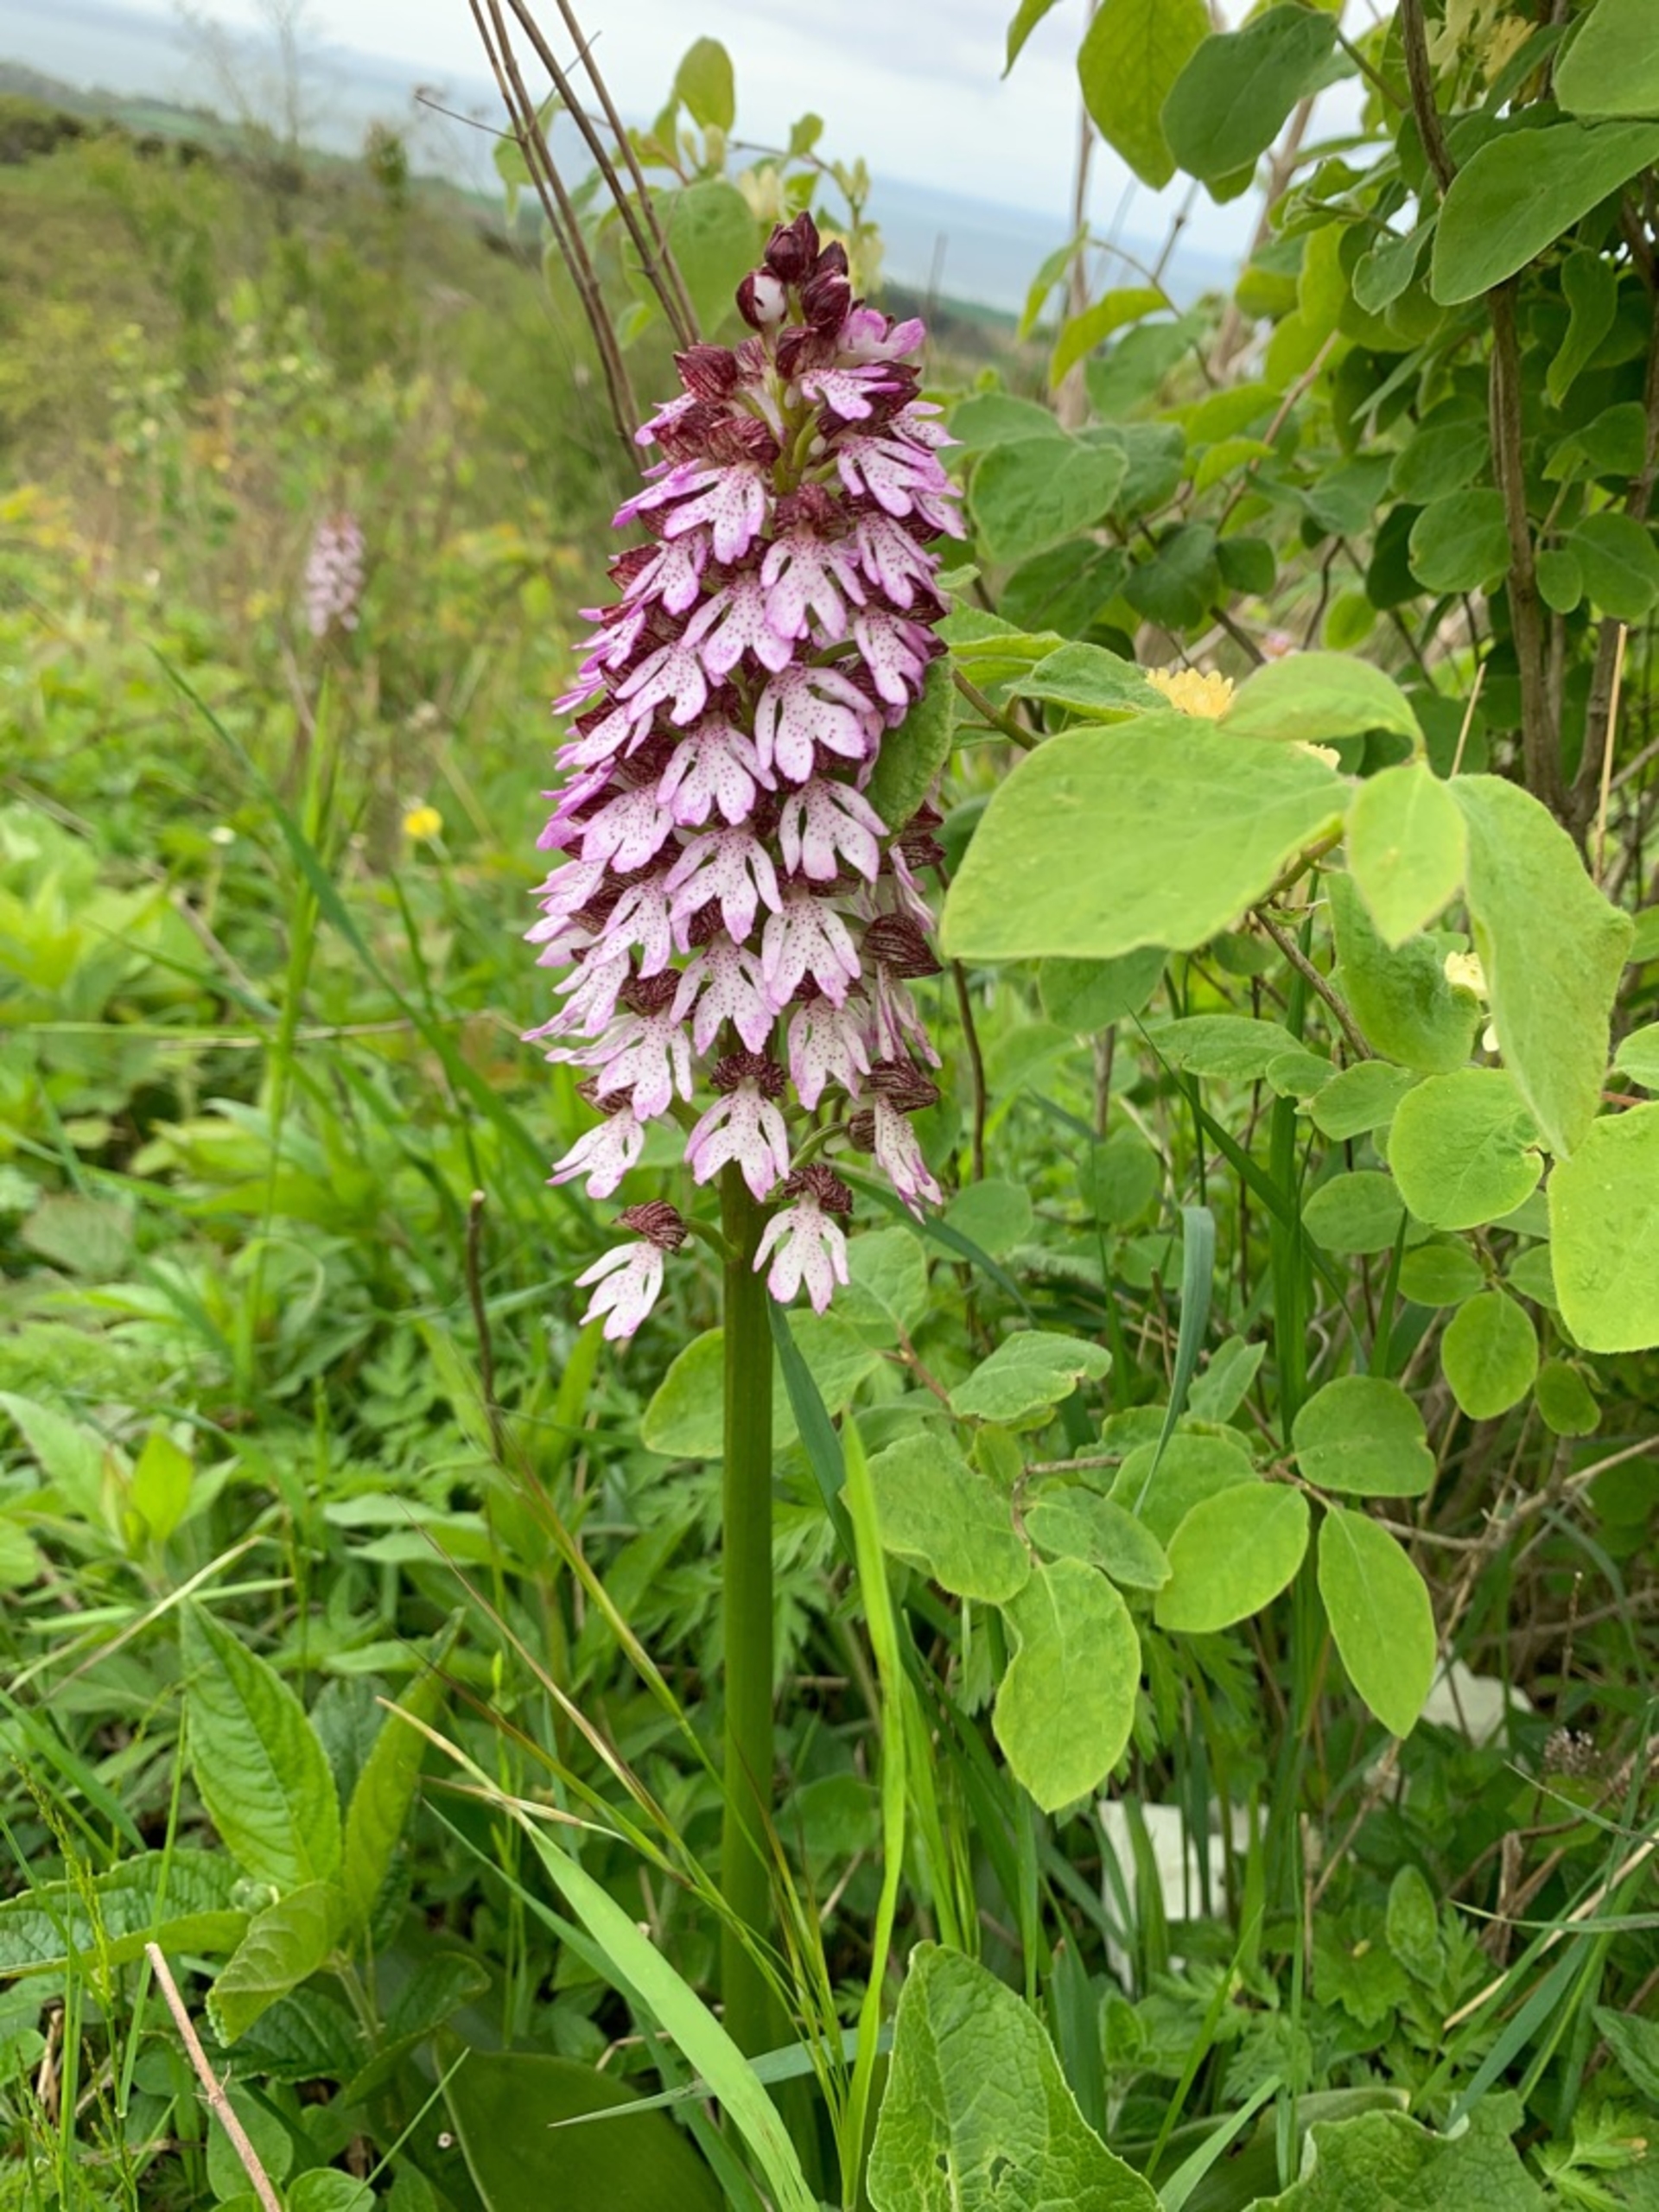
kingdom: Plantae
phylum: Tracheophyta
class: Liliopsida
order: Asparagales
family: Orchidaceae
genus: Orchis
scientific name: Orchis purpurea
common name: Stor gøgeurt
